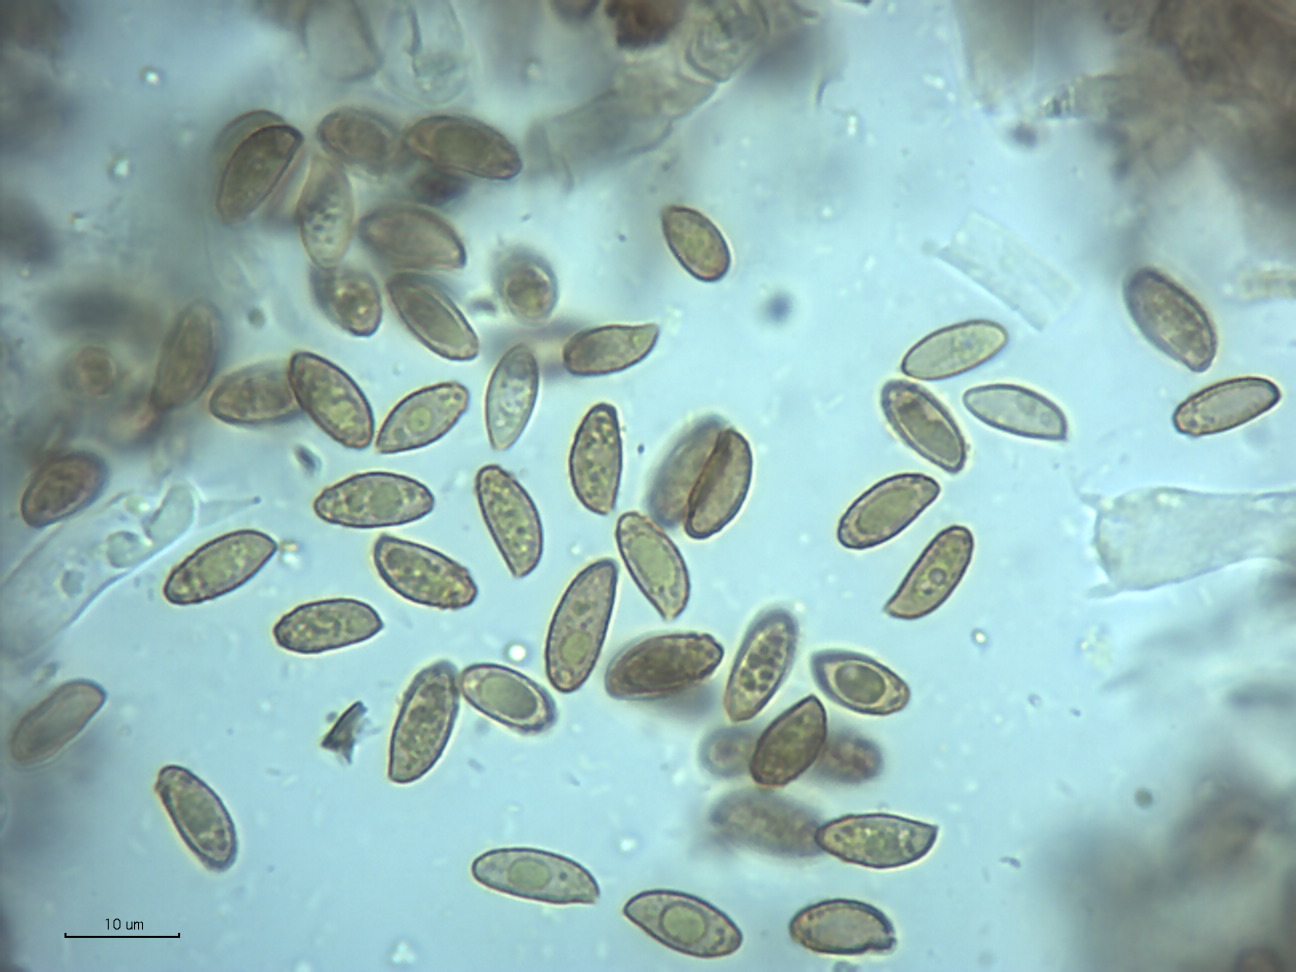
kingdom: Fungi
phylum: Basidiomycota
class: Agaricomycetes
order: Agaricales
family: Cortinariaceae
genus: Cortinarius
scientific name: Cortinarius fusisporus
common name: brunfnugget slørhat
